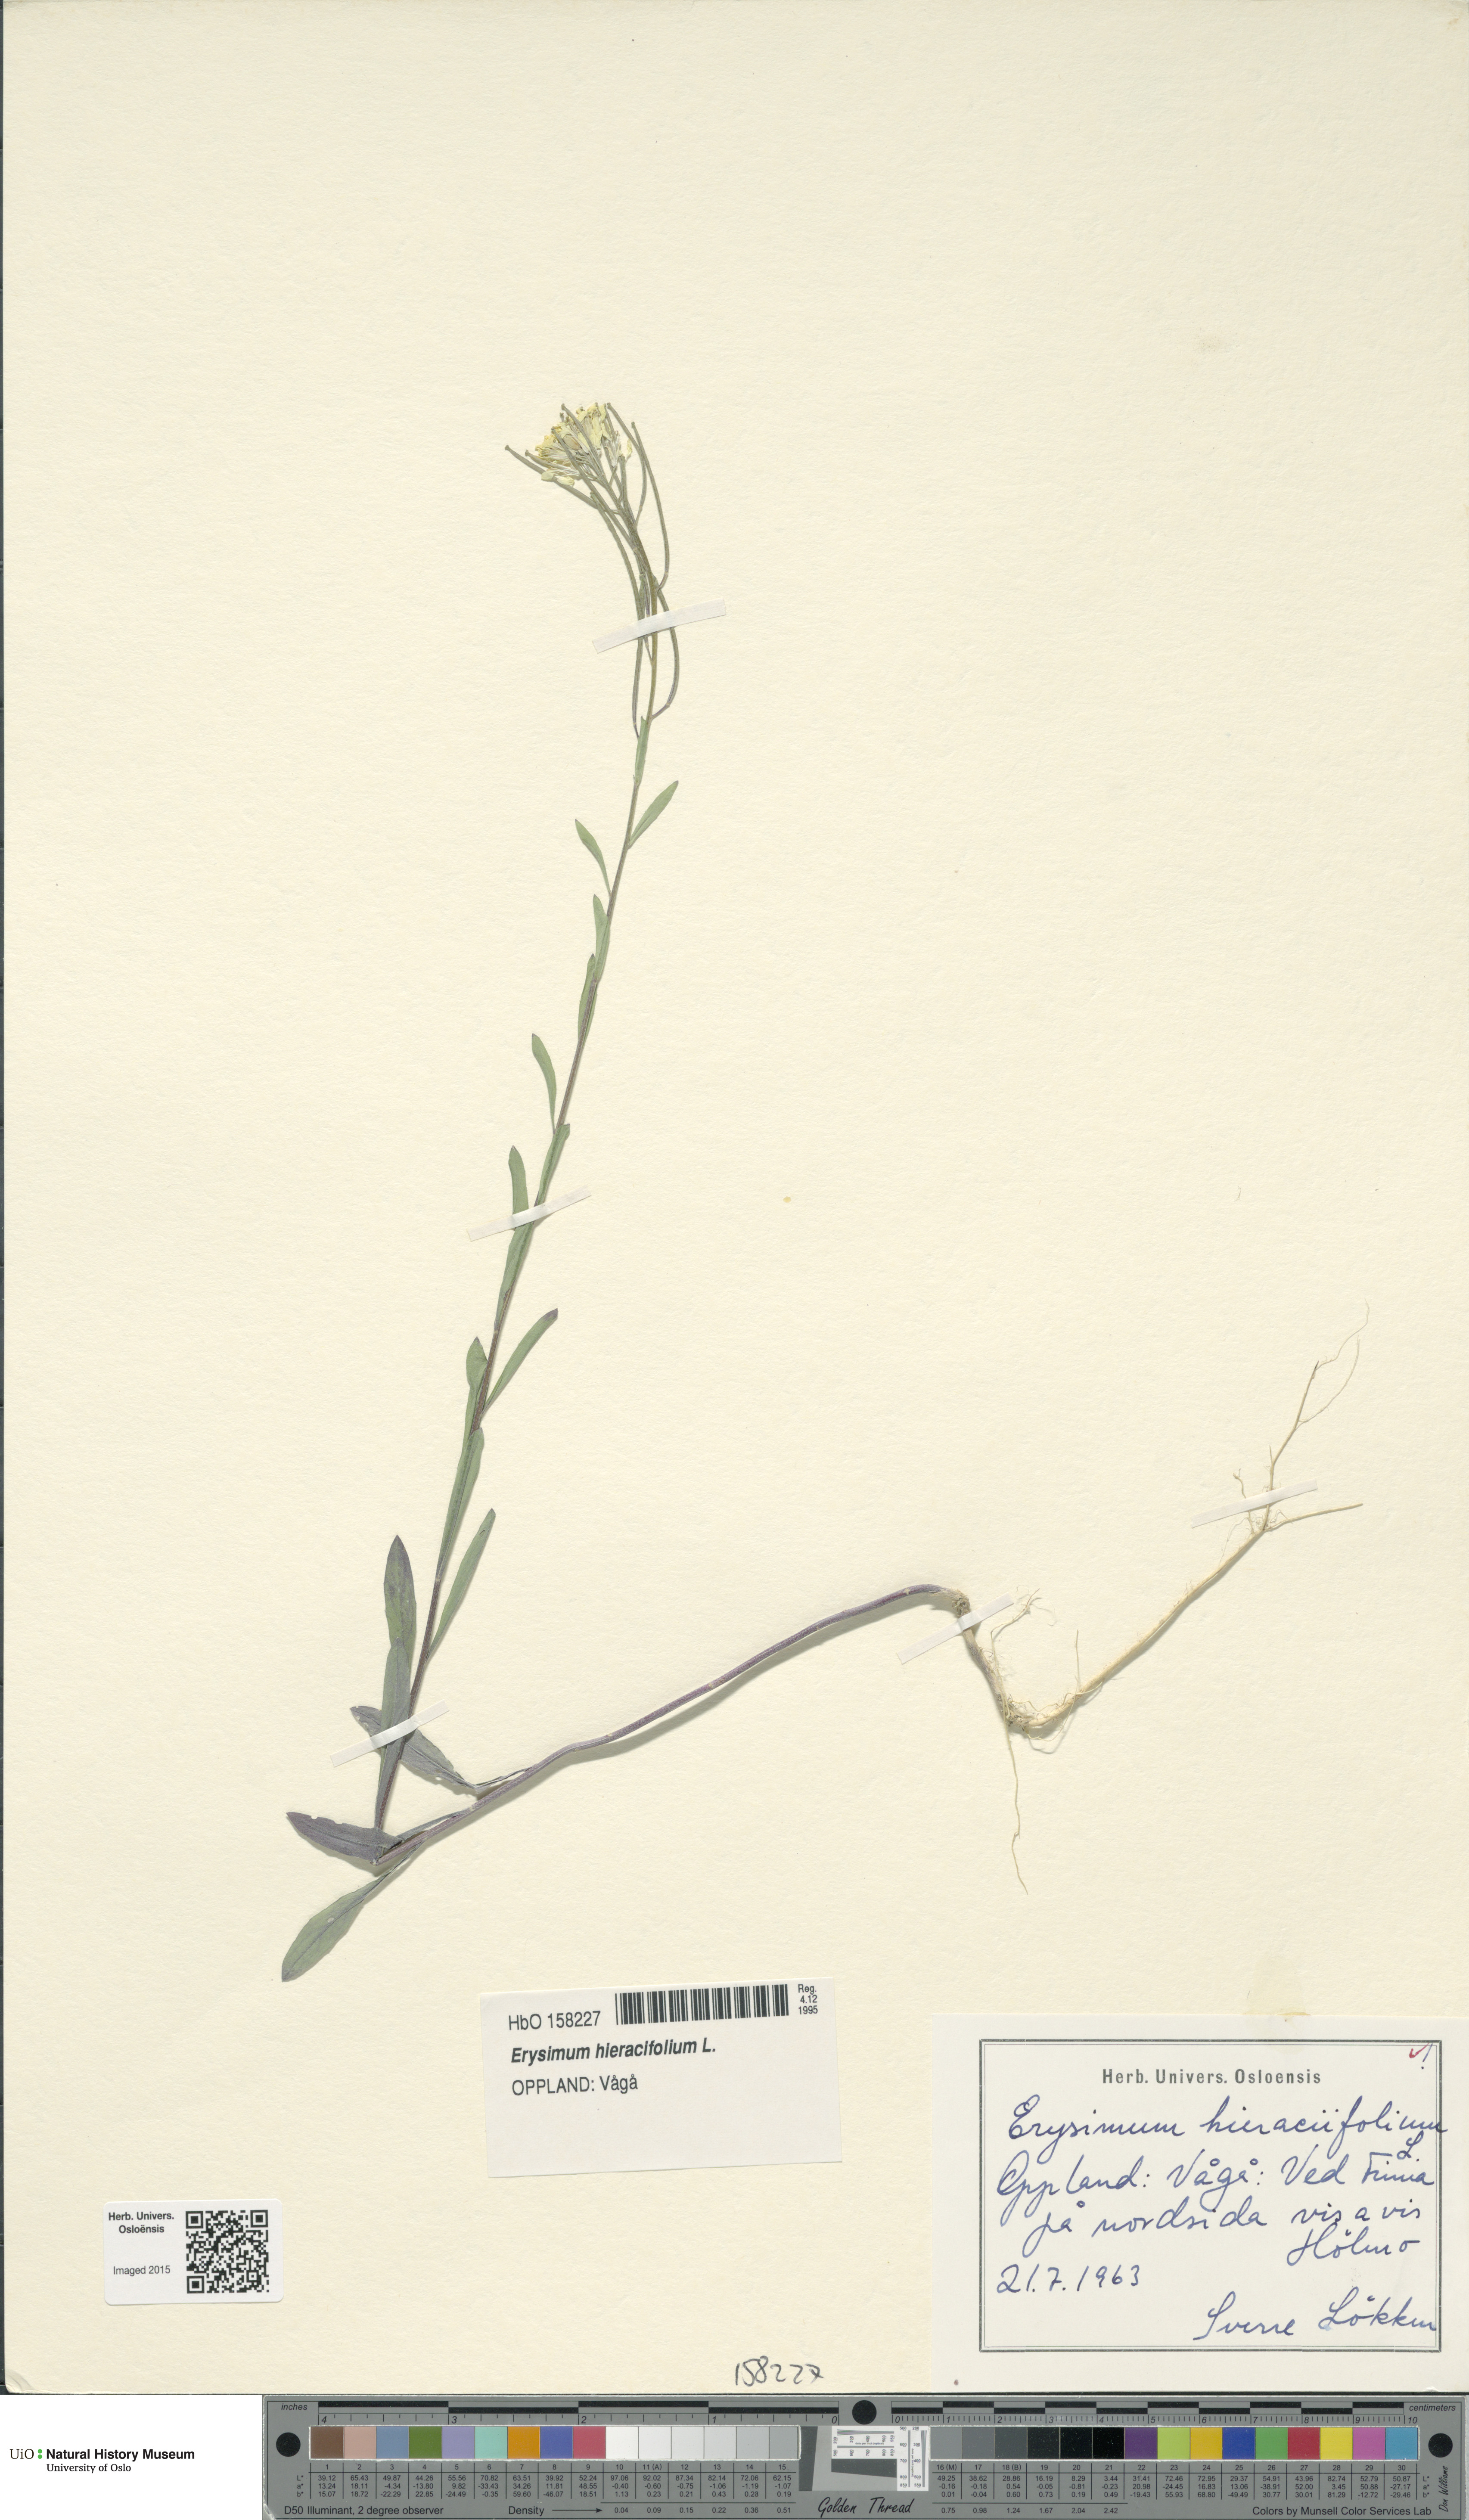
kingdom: Plantae
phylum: Tracheophyta
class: Magnoliopsida
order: Brassicales
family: Brassicaceae
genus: Erysimum
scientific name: Erysimum virgatum
